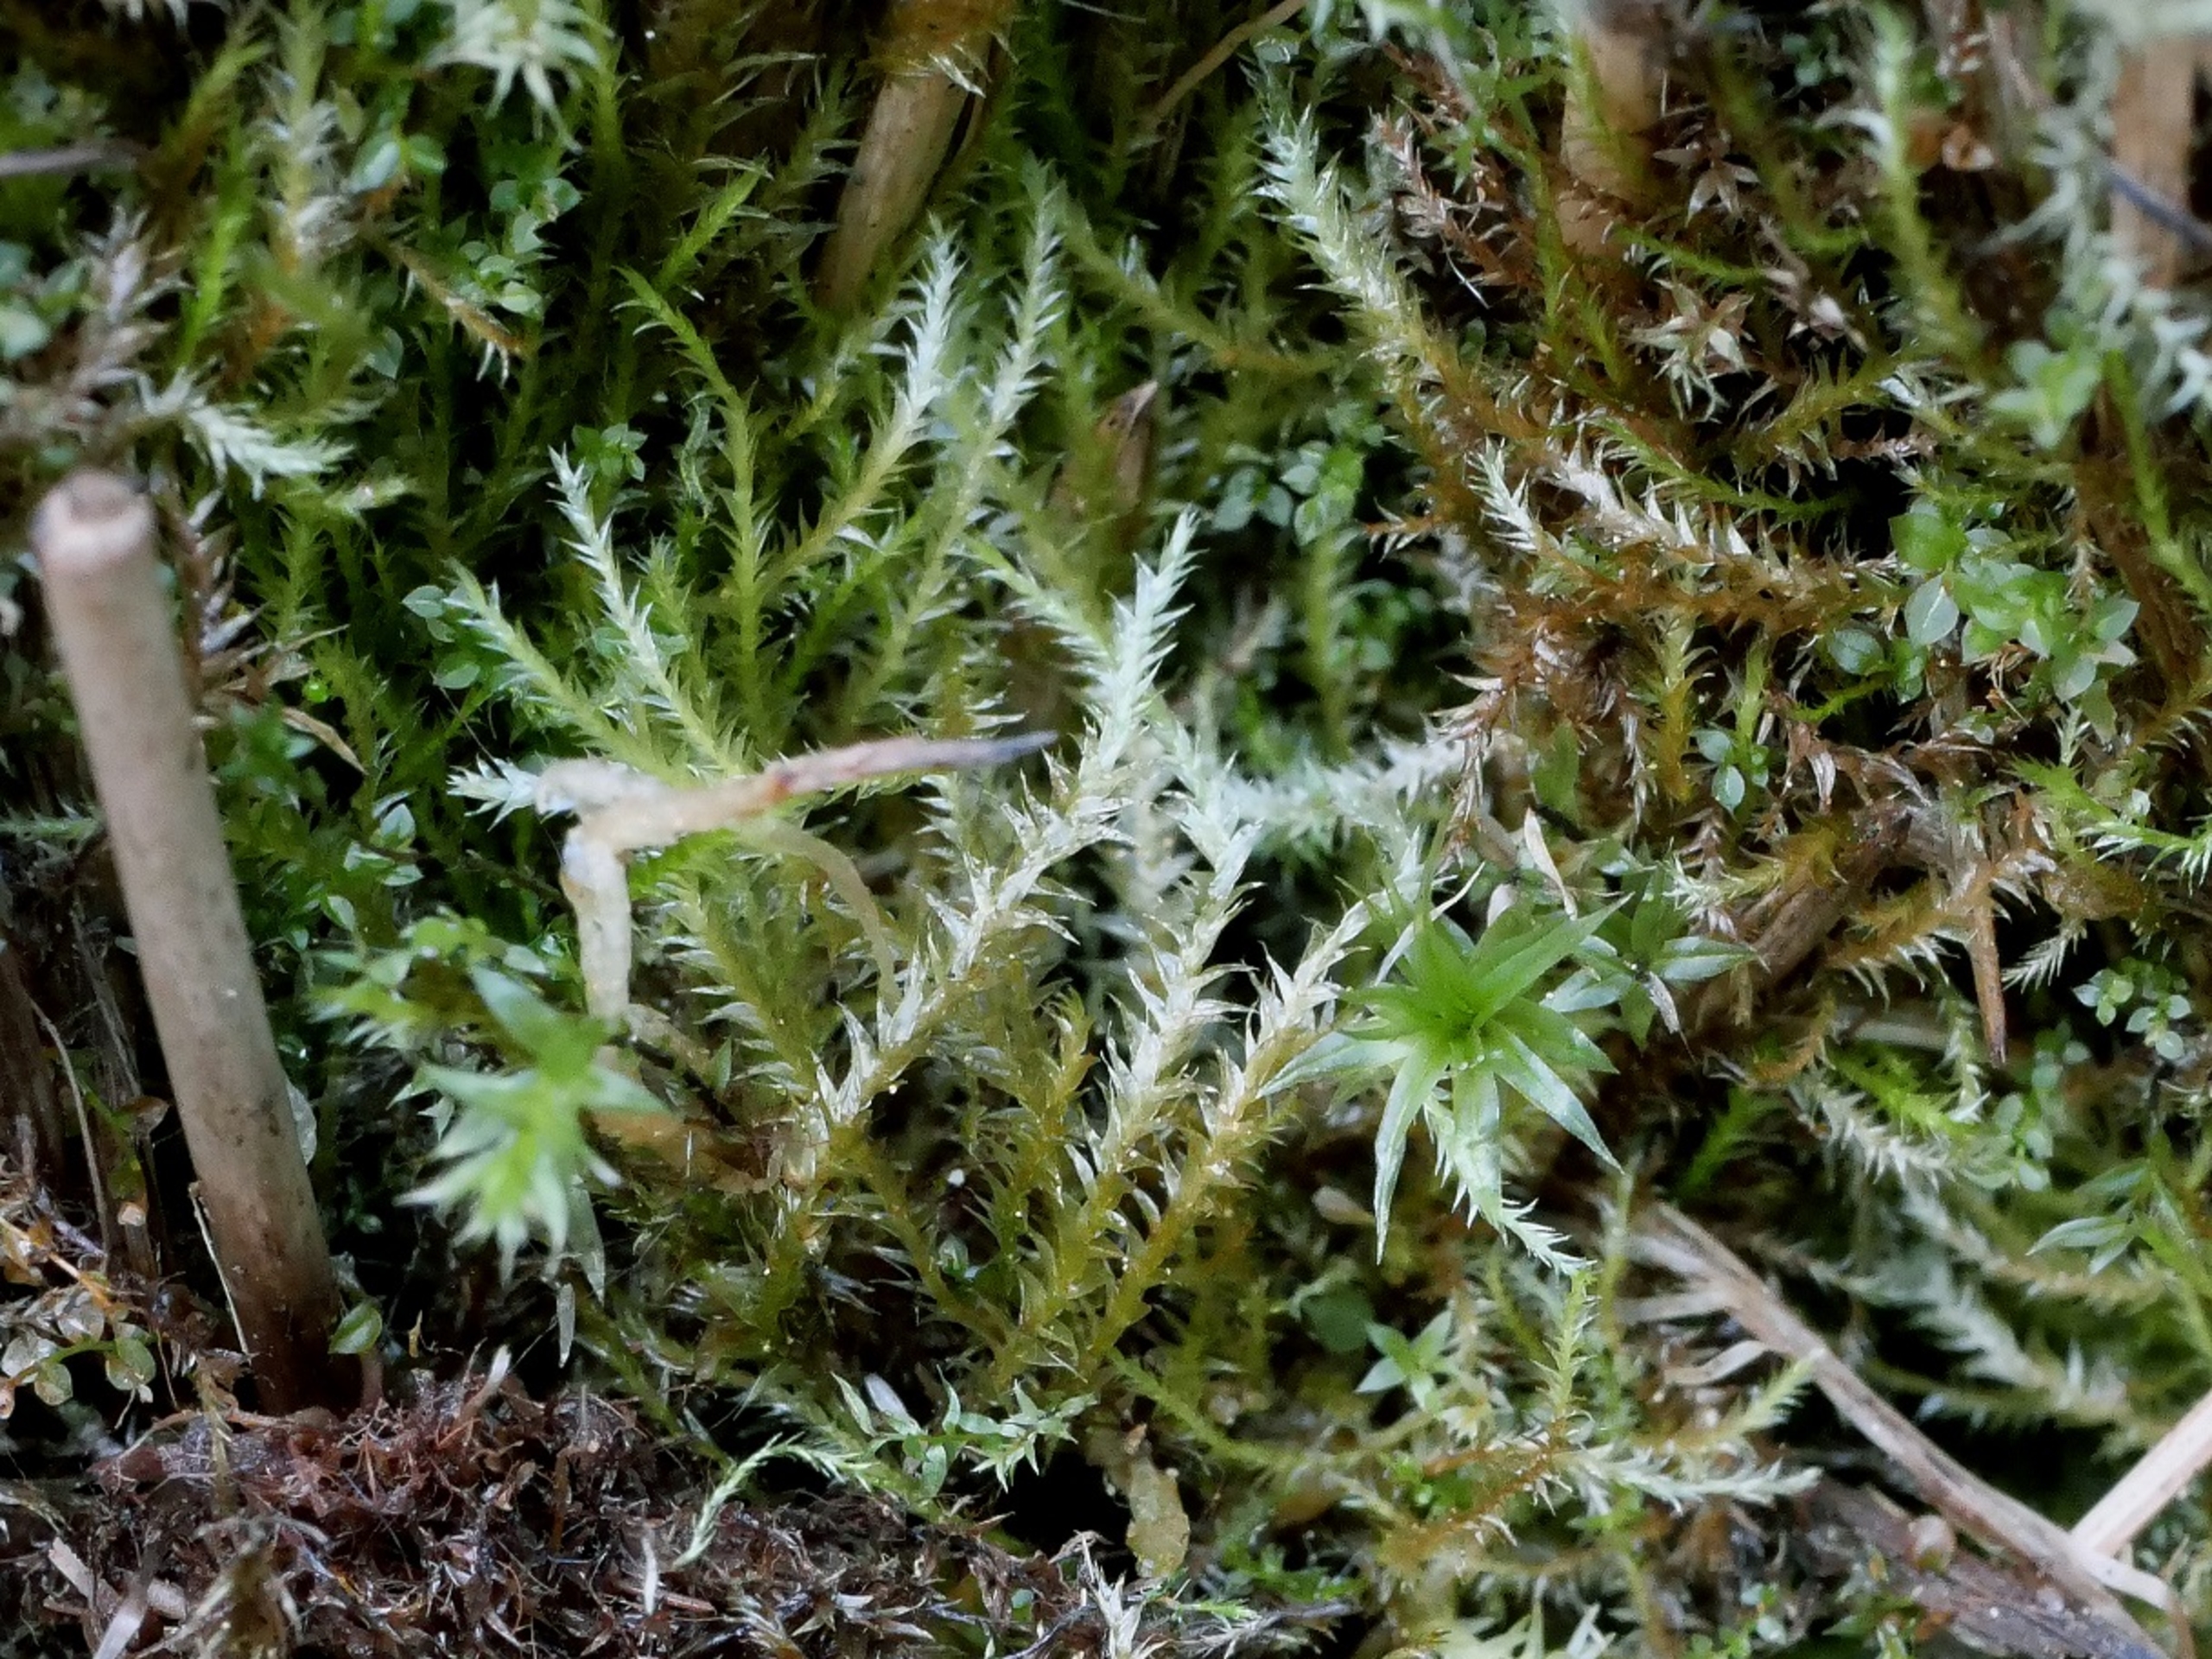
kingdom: Plantae
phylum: Bryophyta
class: Bryopsida
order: Hypnales
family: Plagiotheciaceae
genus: Plagiothecium
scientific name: Plagiothecium latebricola
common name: Spinkel tæppemos
